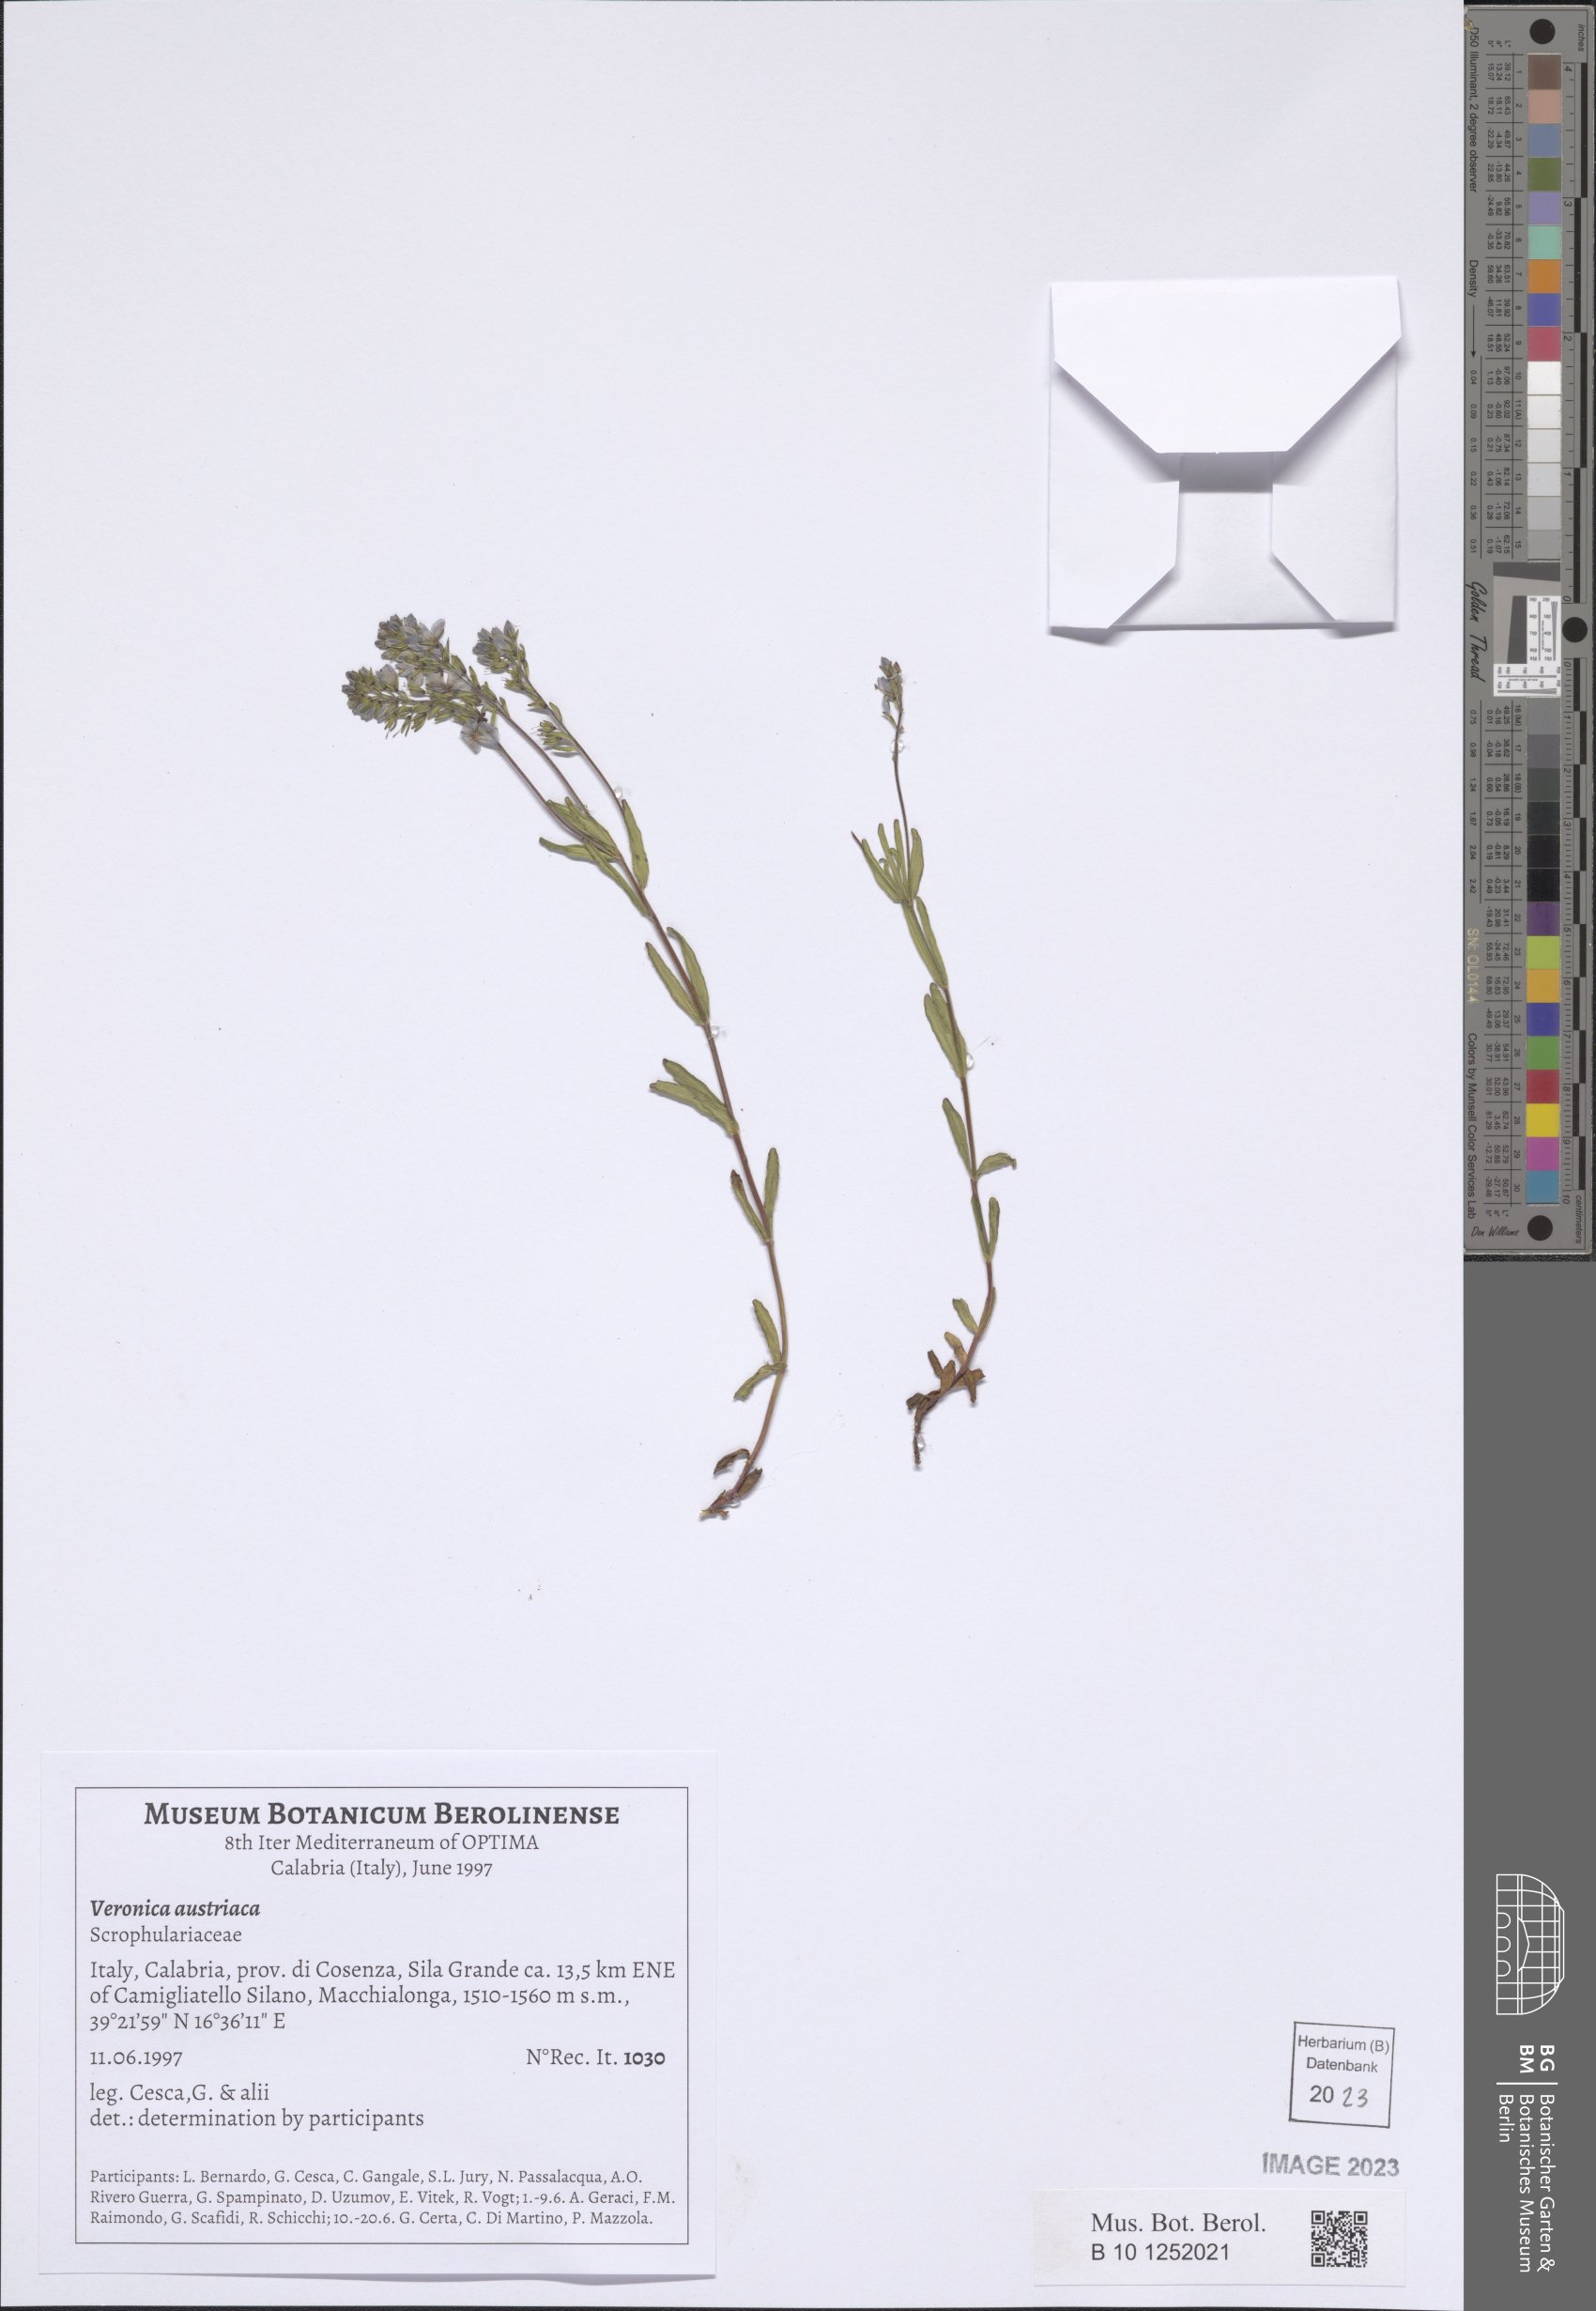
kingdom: Plantae
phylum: Tracheophyta
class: Magnoliopsida
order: Lamiales
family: Plantaginaceae
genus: Veronica
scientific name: Veronica austriaca
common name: Large speedwell
